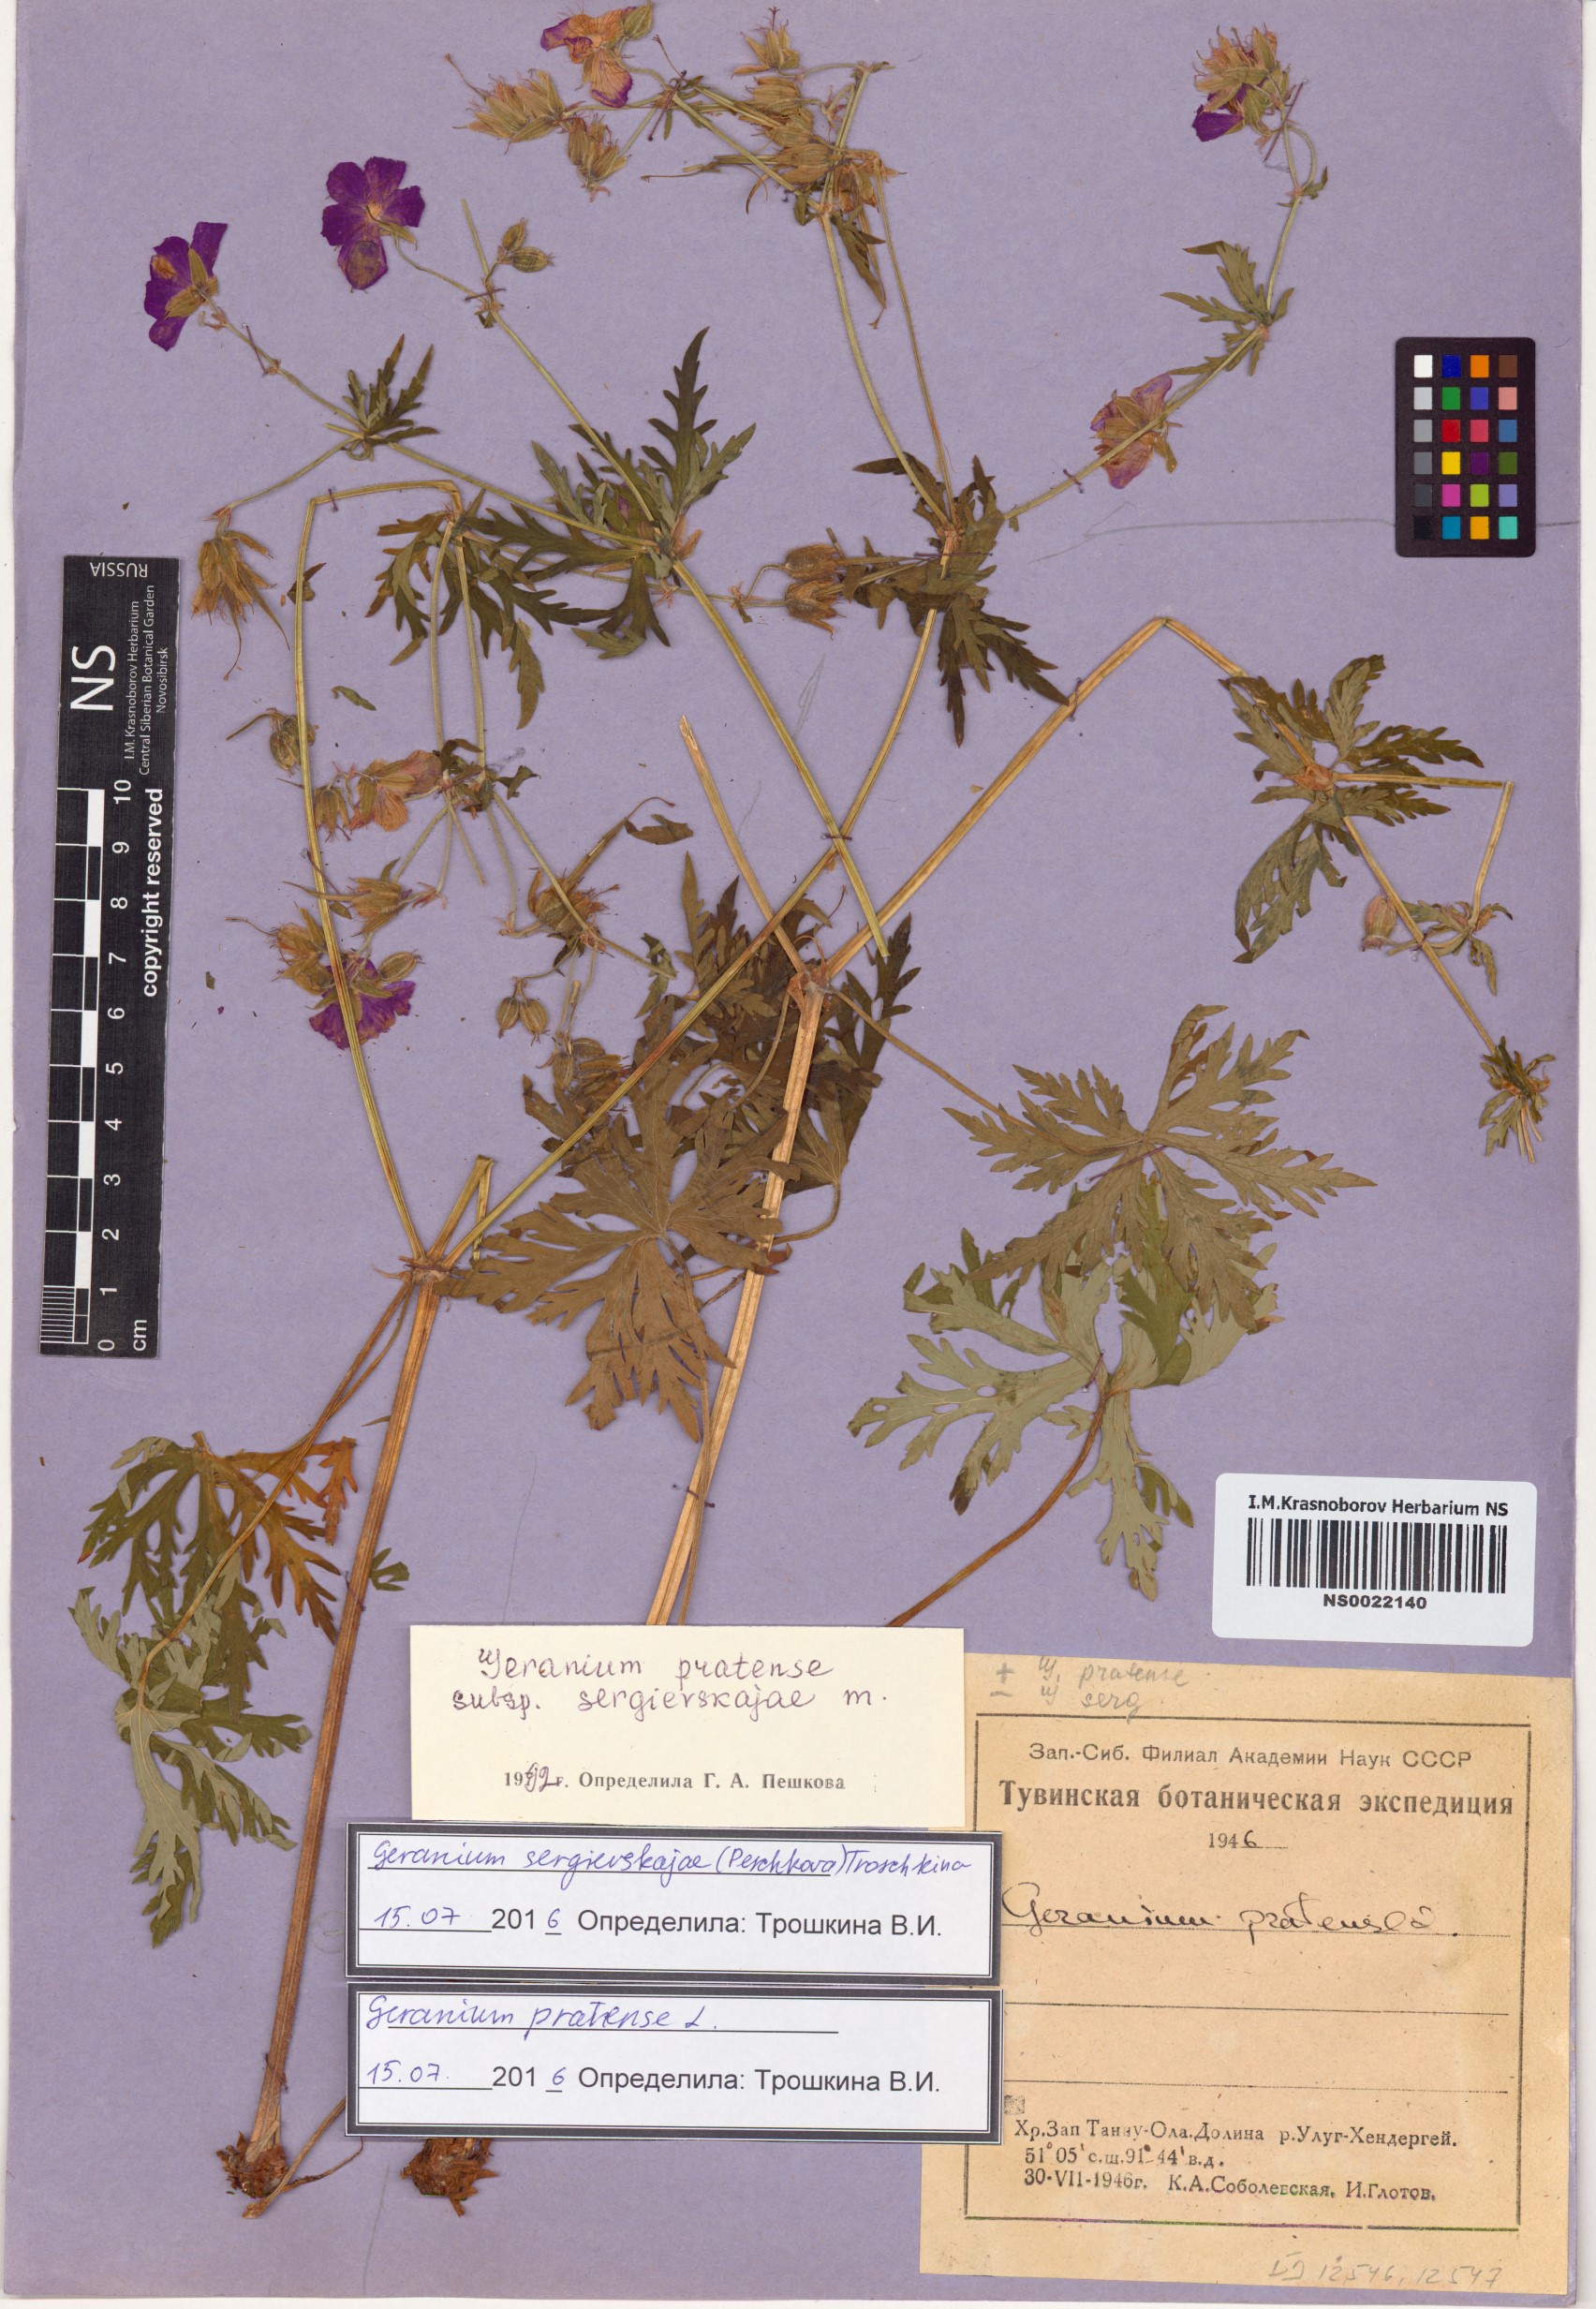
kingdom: Plantae
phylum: Tracheophyta
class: Magnoliopsida
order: Geraniales
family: Geraniaceae
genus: Geranium
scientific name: Geranium pratense
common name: Meadow crane's-bill
